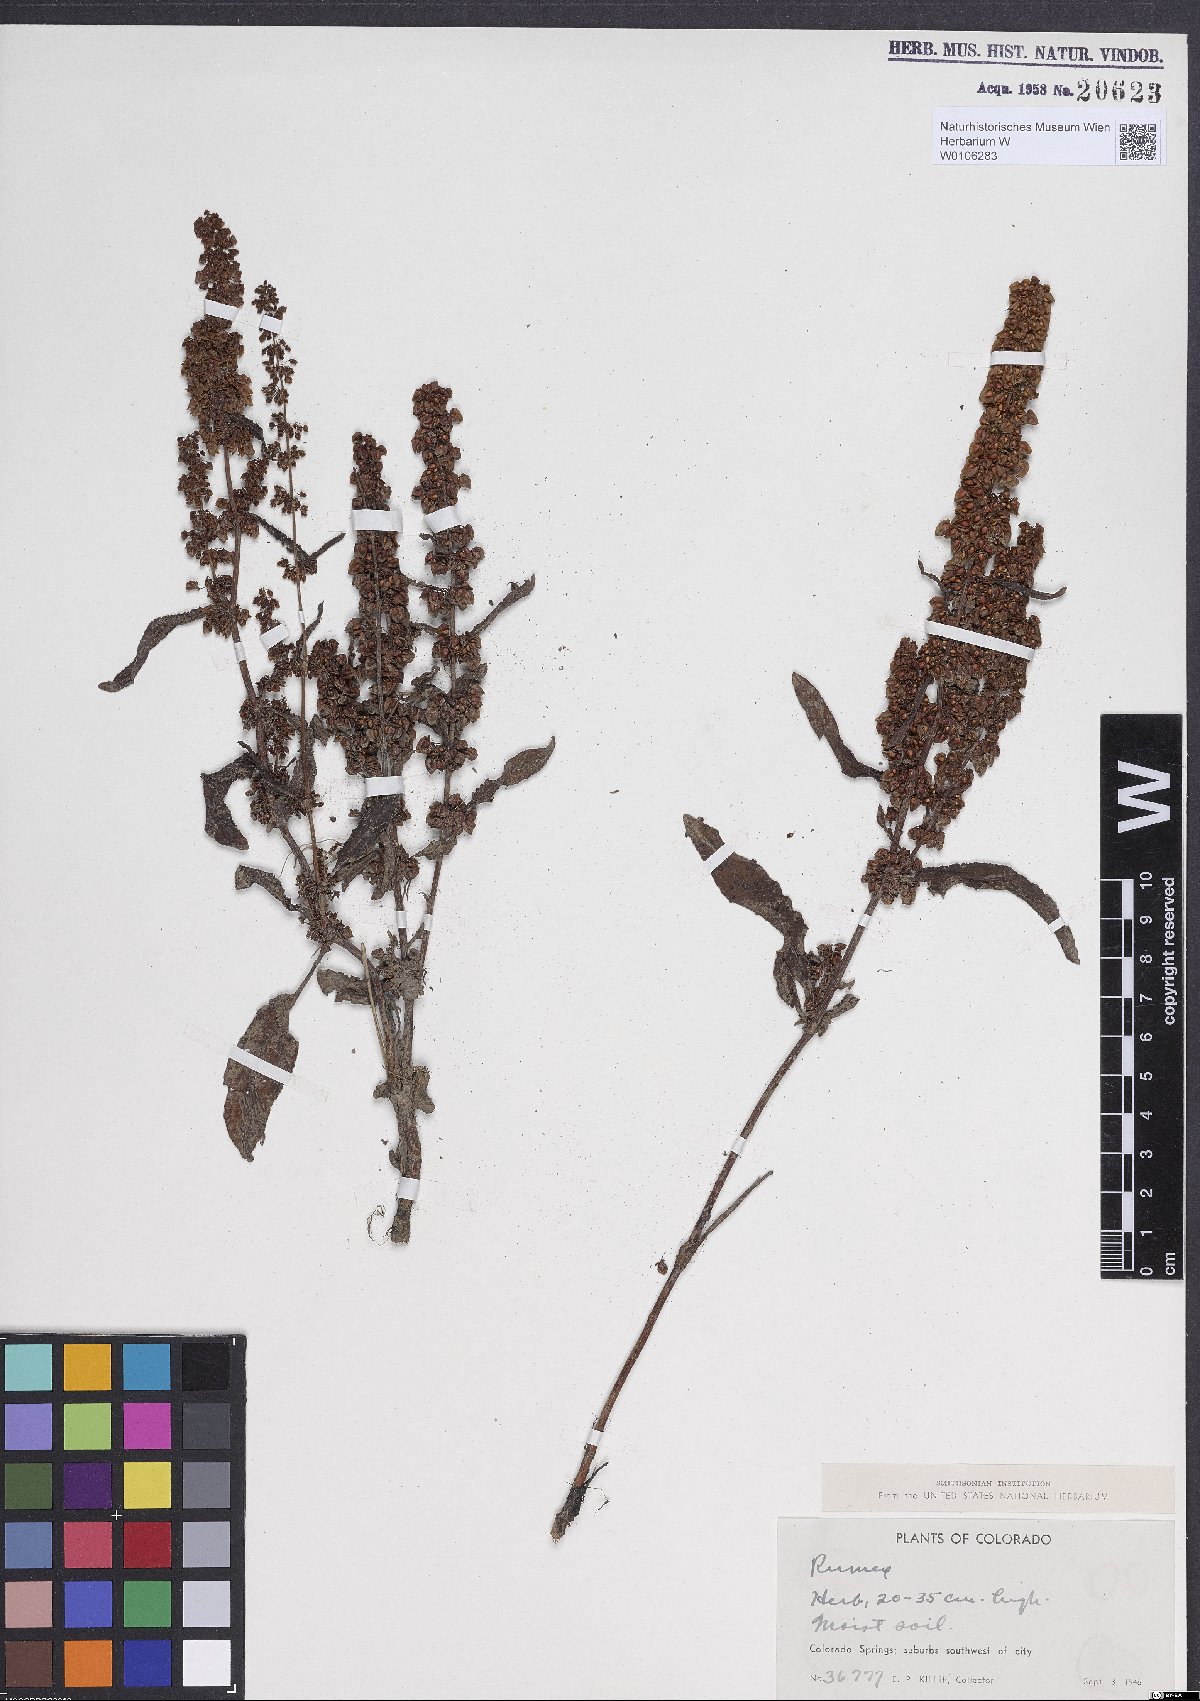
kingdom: Plantae
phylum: Tracheophyta
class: Magnoliopsida
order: Caryophyllales
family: Polygonaceae
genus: Rumex
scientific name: Rumex crispus
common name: Curled dock
